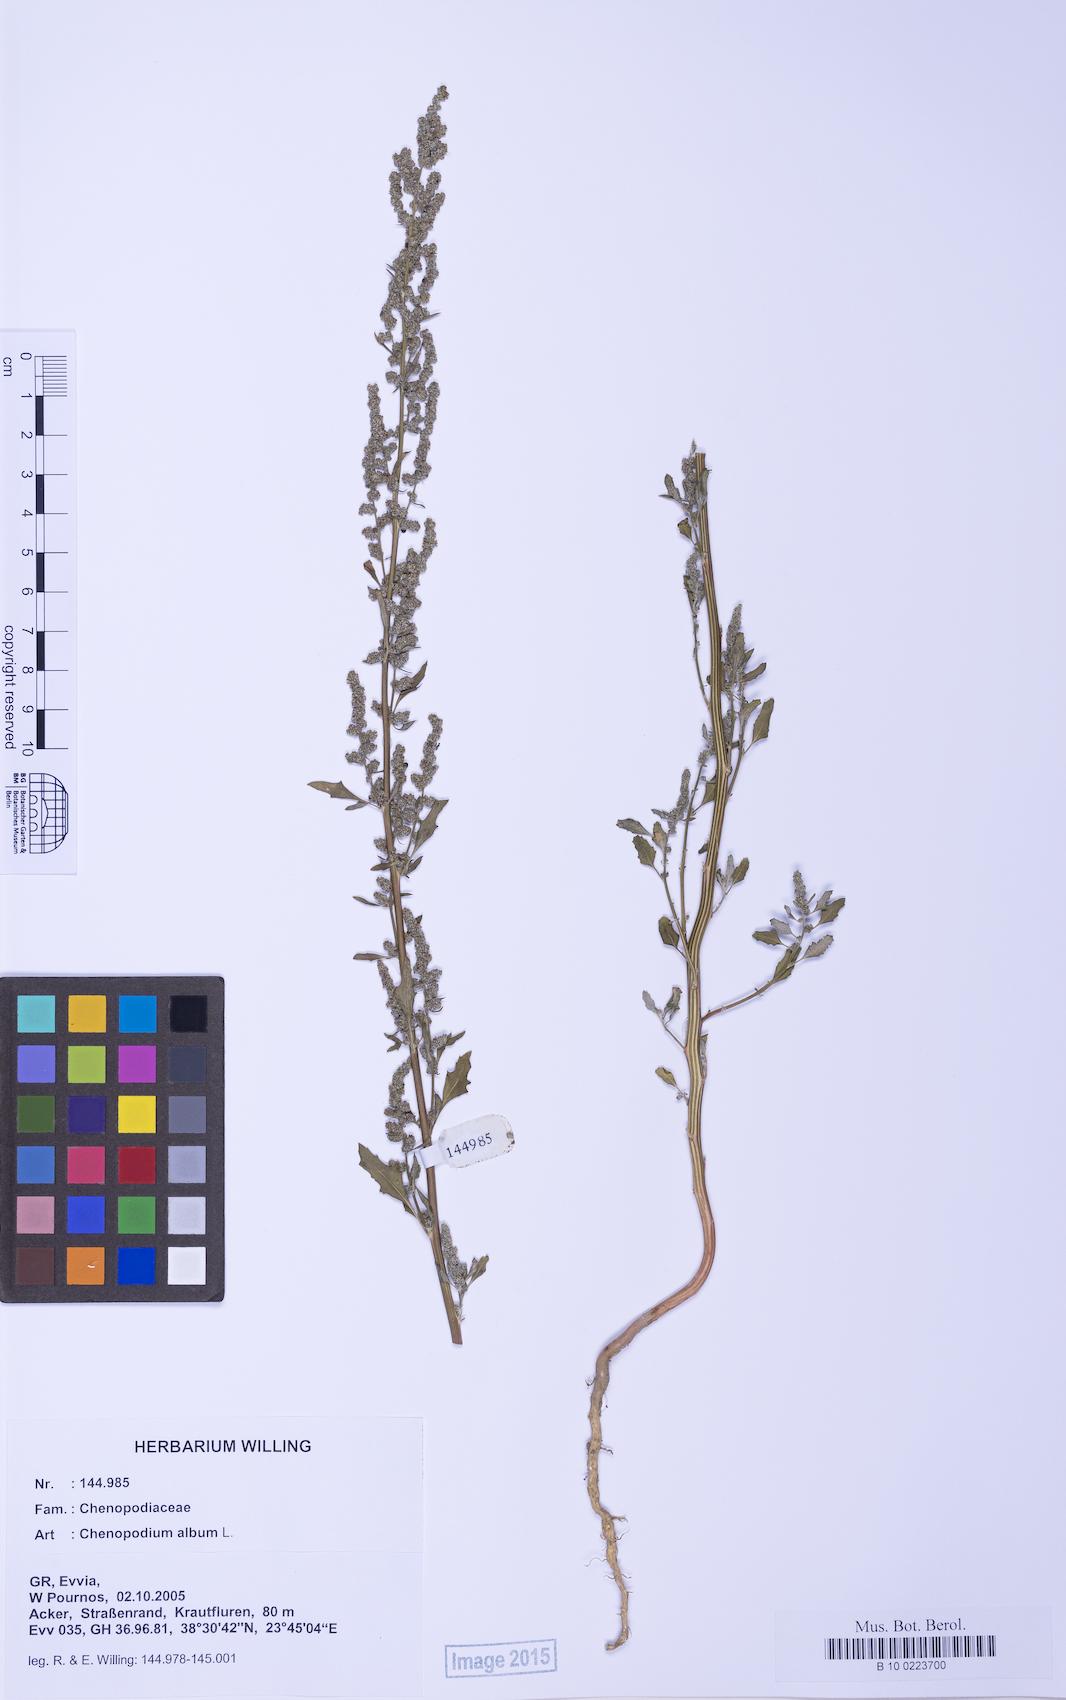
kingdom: Plantae
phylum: Tracheophyta
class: Magnoliopsida
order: Caryophyllales
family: Amaranthaceae
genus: Chenopodium
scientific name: Chenopodium album
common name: Fat-hen
